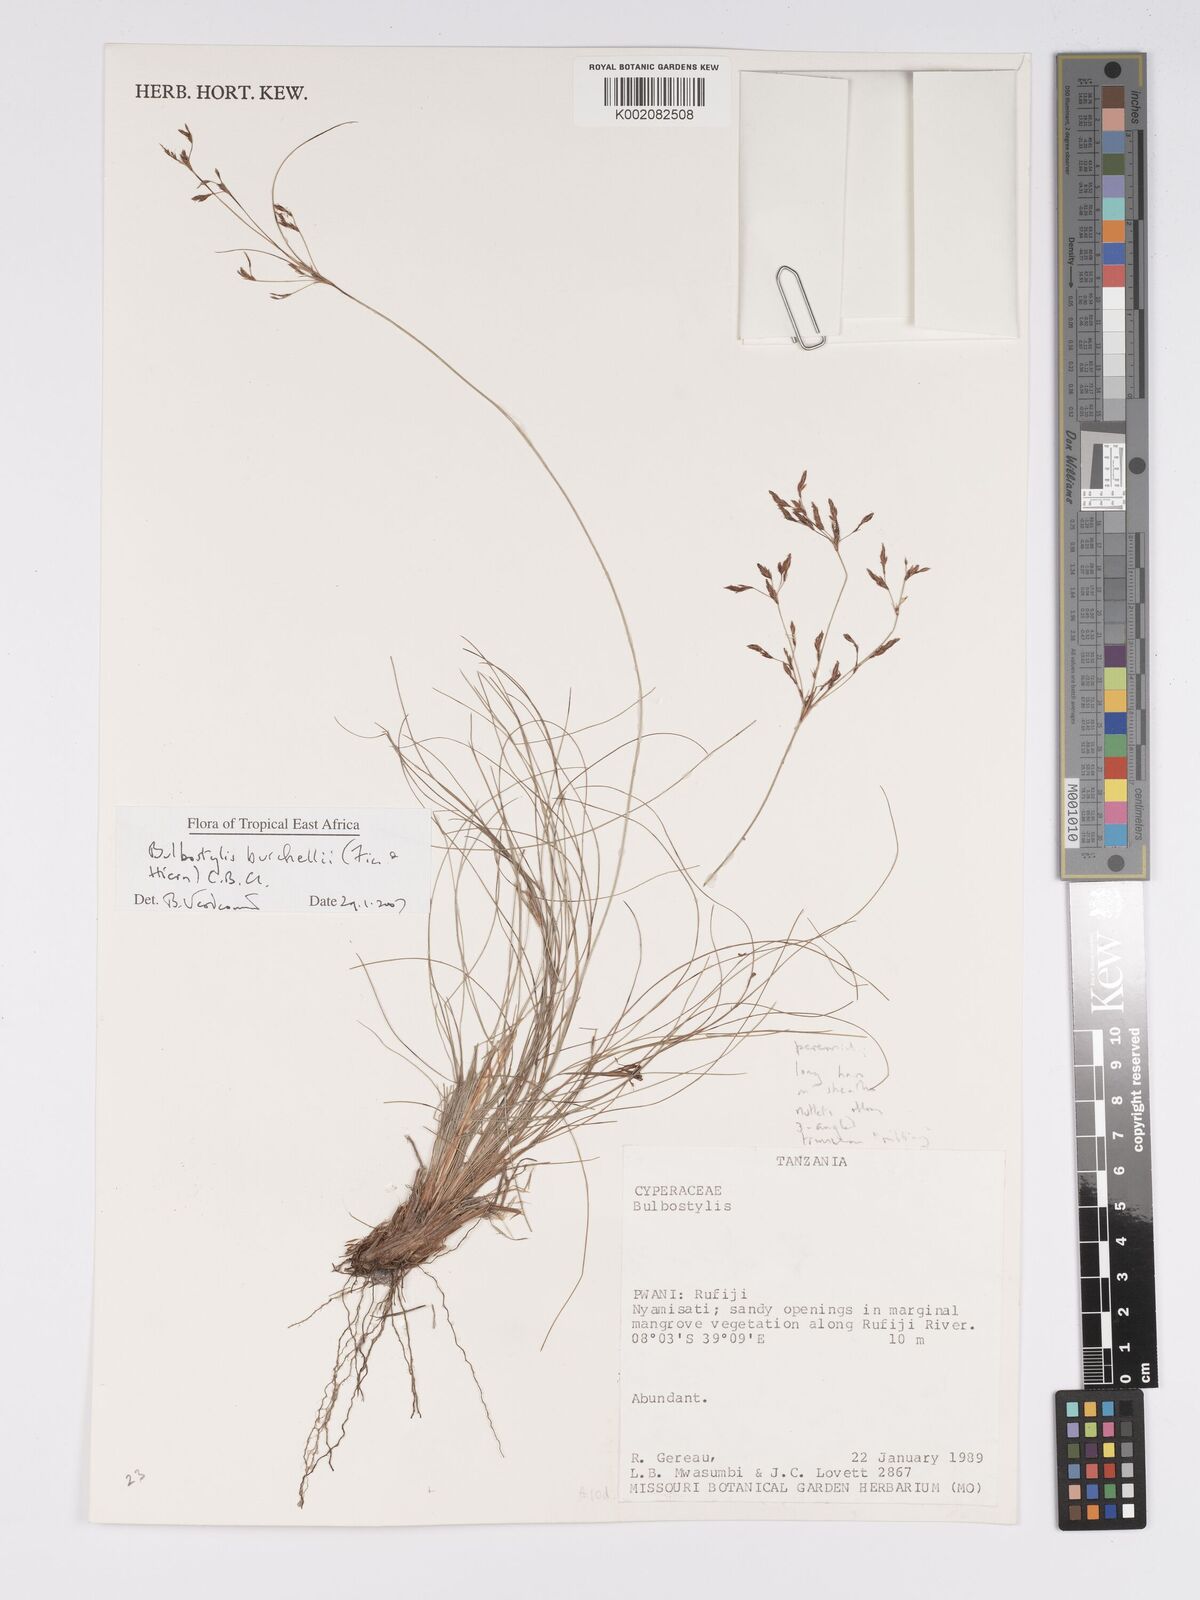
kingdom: Plantae
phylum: Tracheophyta
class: Liliopsida
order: Poales
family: Cyperaceae
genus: Bulbostylis
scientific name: Bulbostylis burchellii
